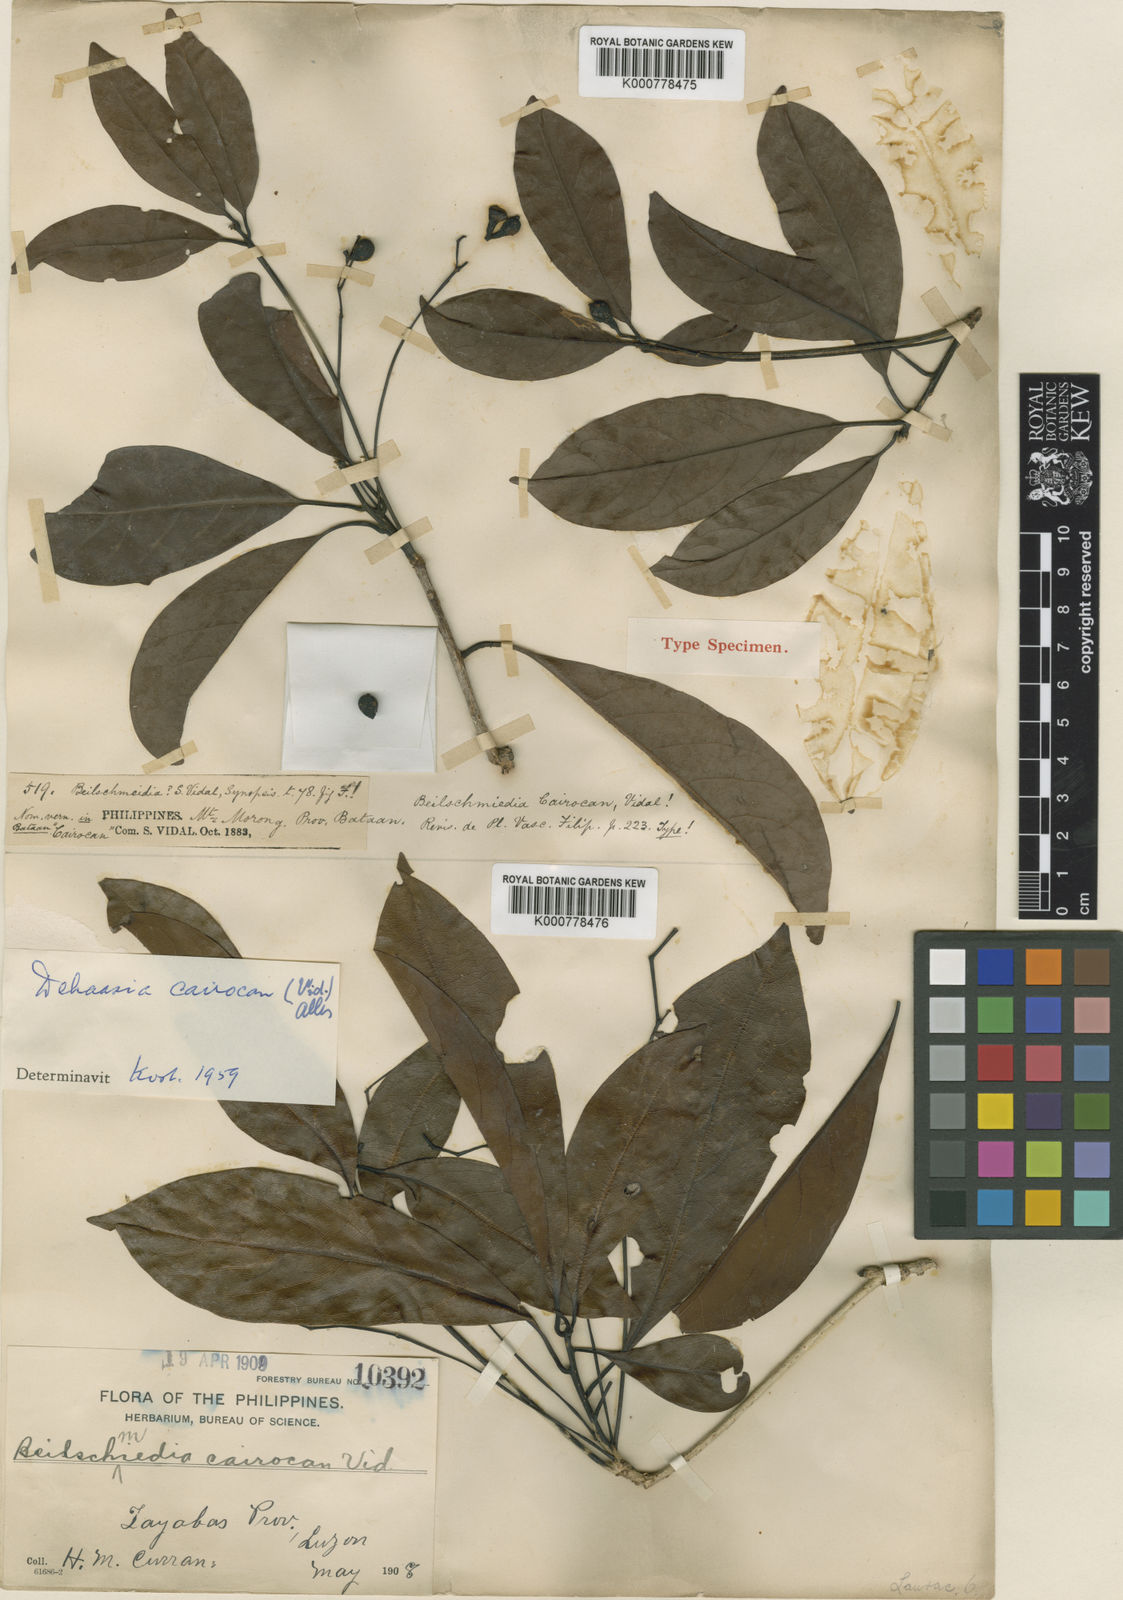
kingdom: Plantae
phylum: Tracheophyta
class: Magnoliopsida
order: Laurales
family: Lauraceae
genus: Dehaasia
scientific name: Dehaasia cairocan
